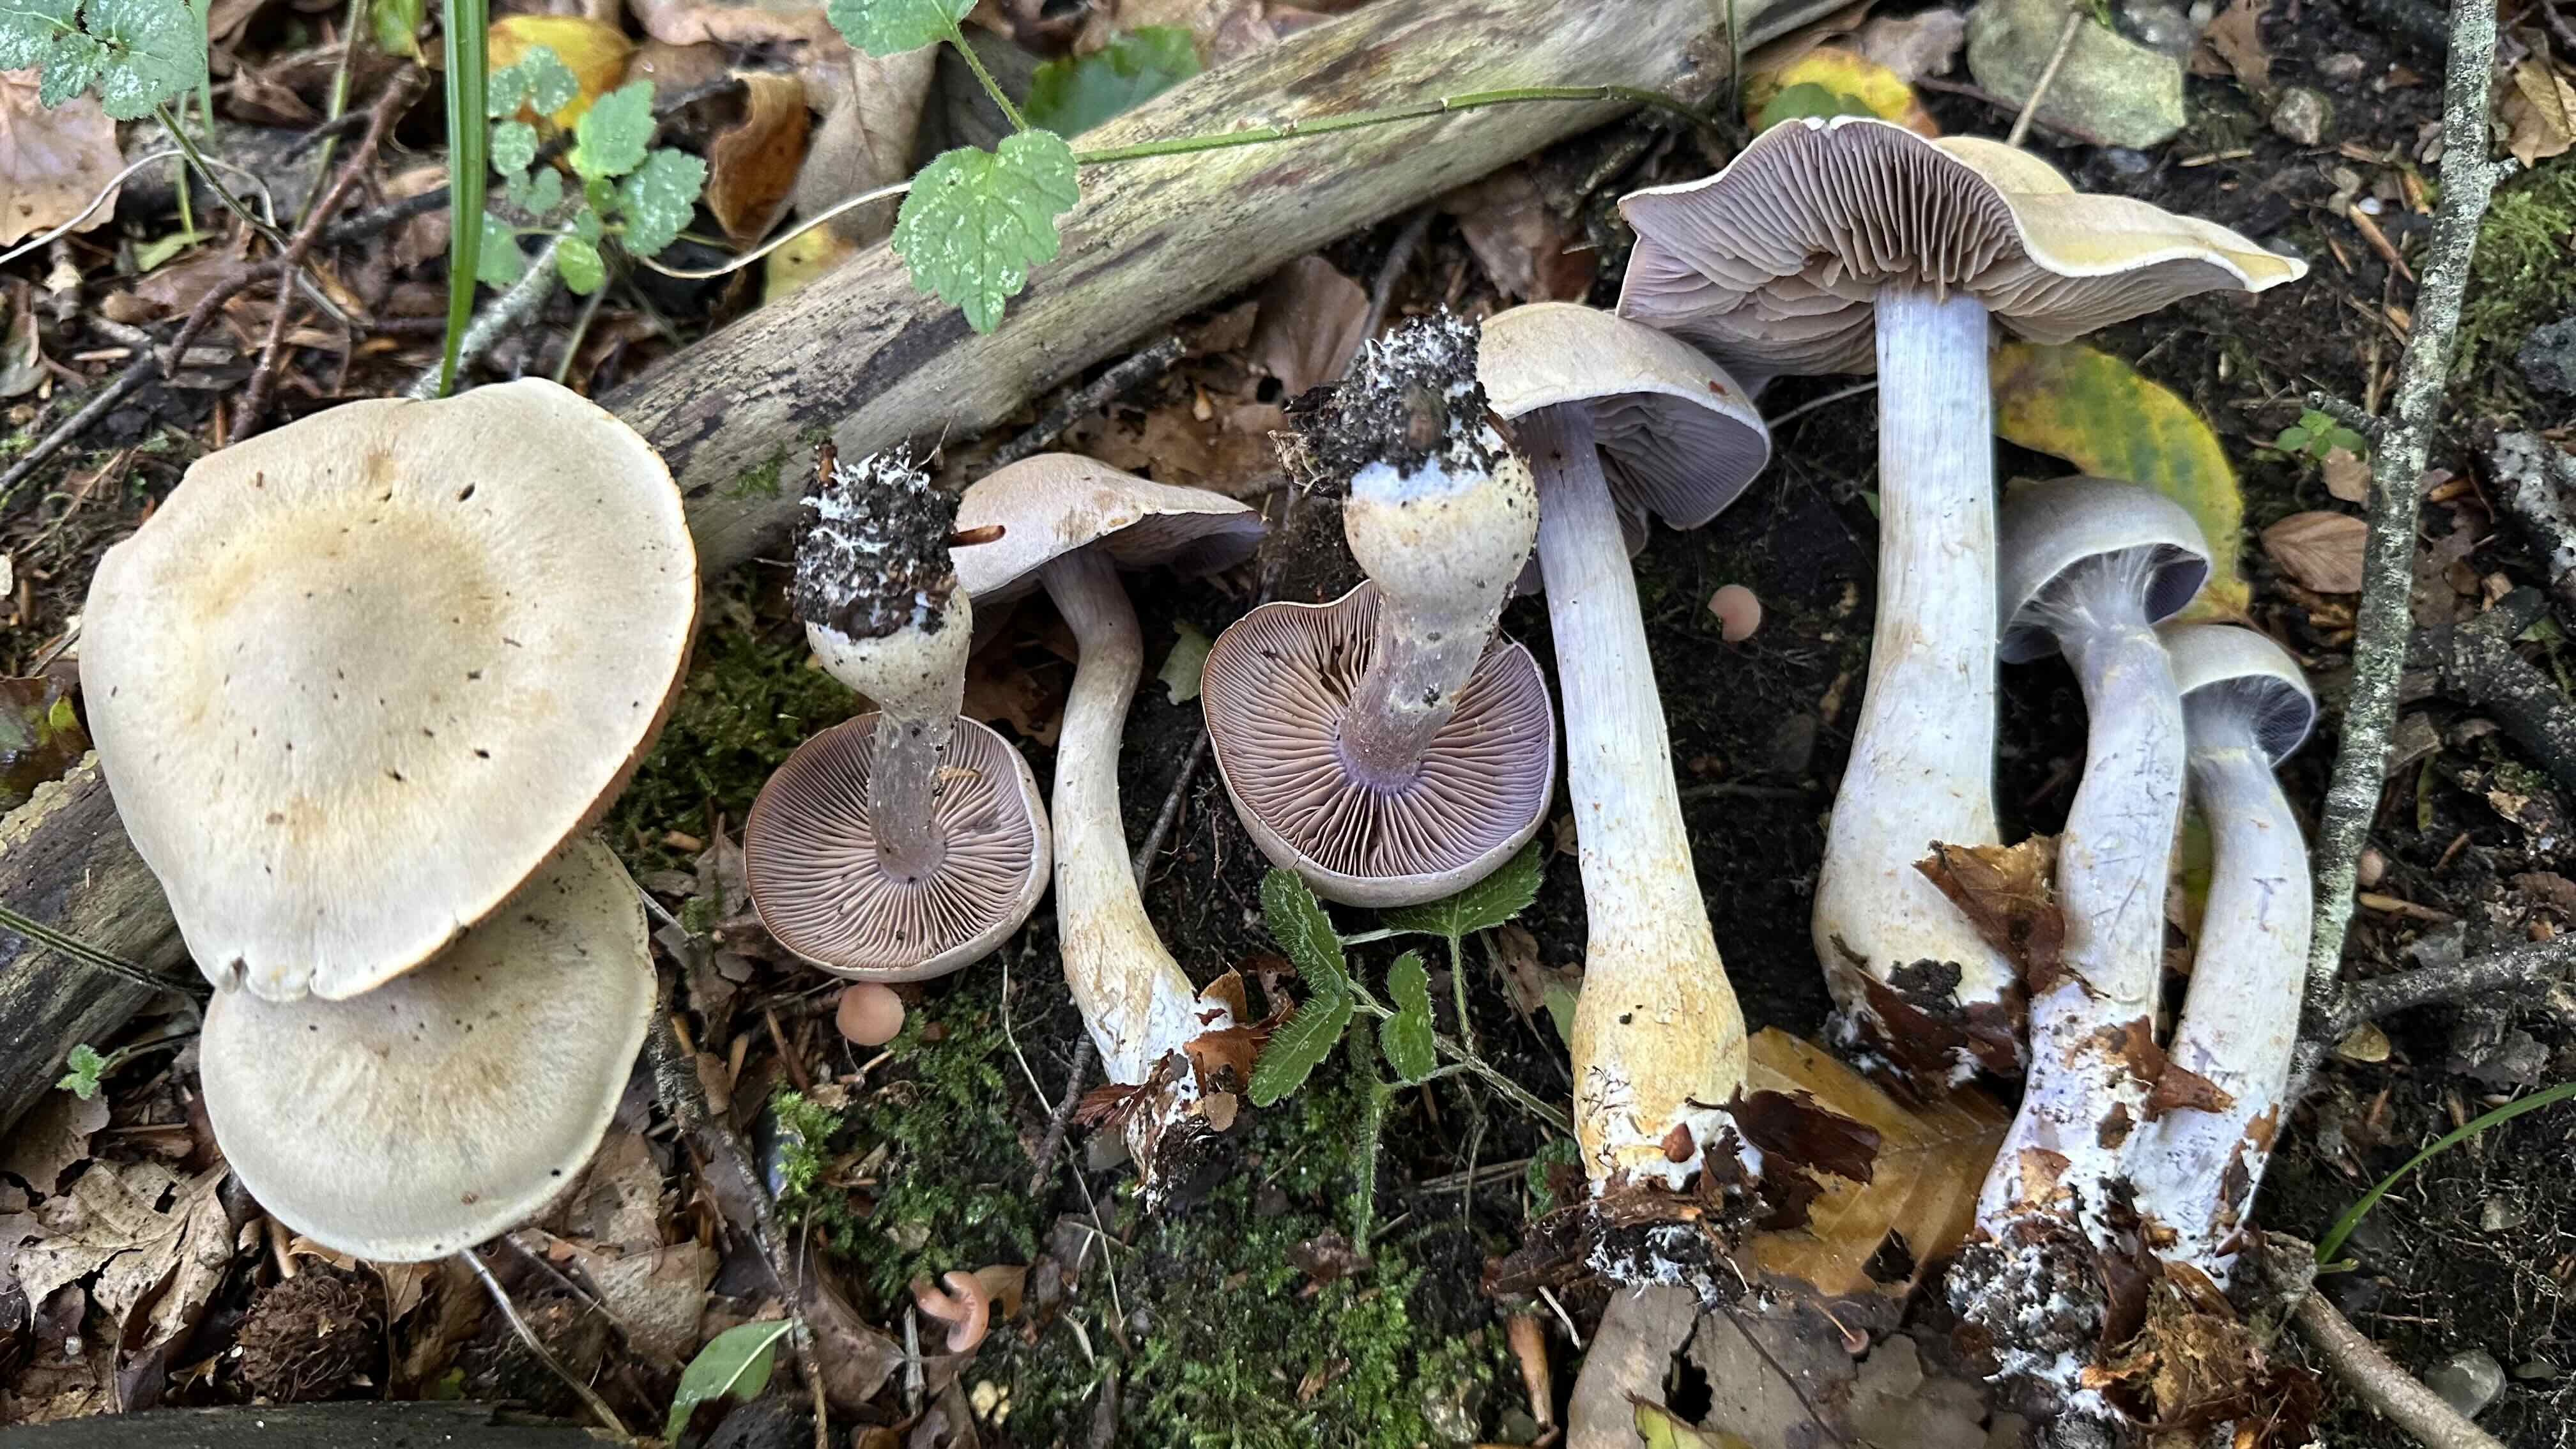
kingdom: Fungi
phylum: Basidiomycota
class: Agaricomycetes
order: Agaricales
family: Cortinariaceae
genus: Cortinarius
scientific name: Cortinarius
